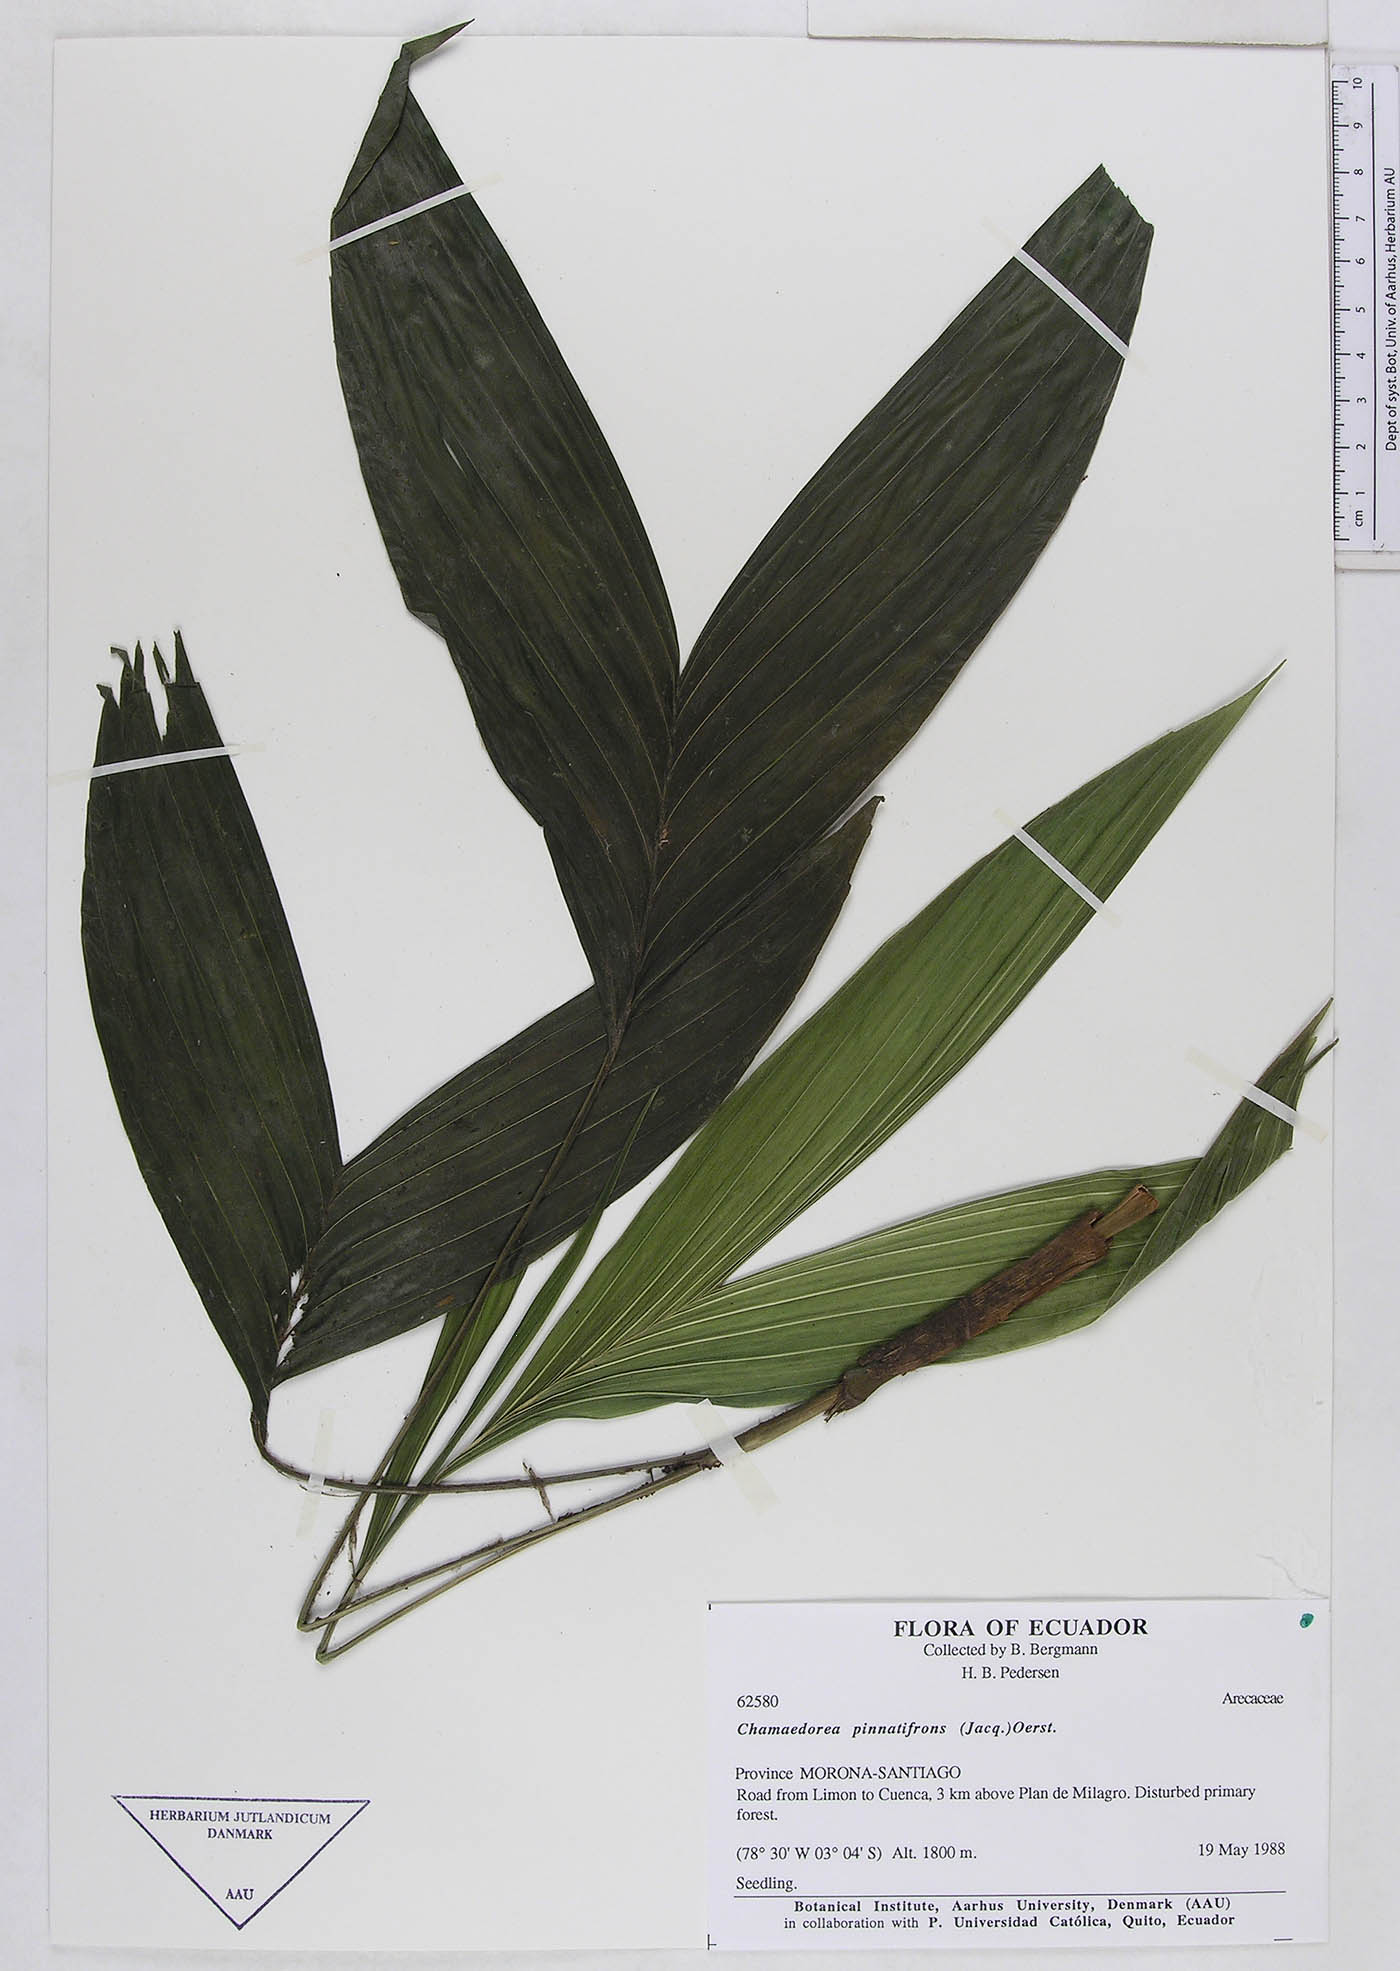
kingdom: Plantae
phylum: Tracheophyta
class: Liliopsida
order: Arecales
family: Arecaceae
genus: Chamaedorea
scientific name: Chamaedorea pinnatifrons
